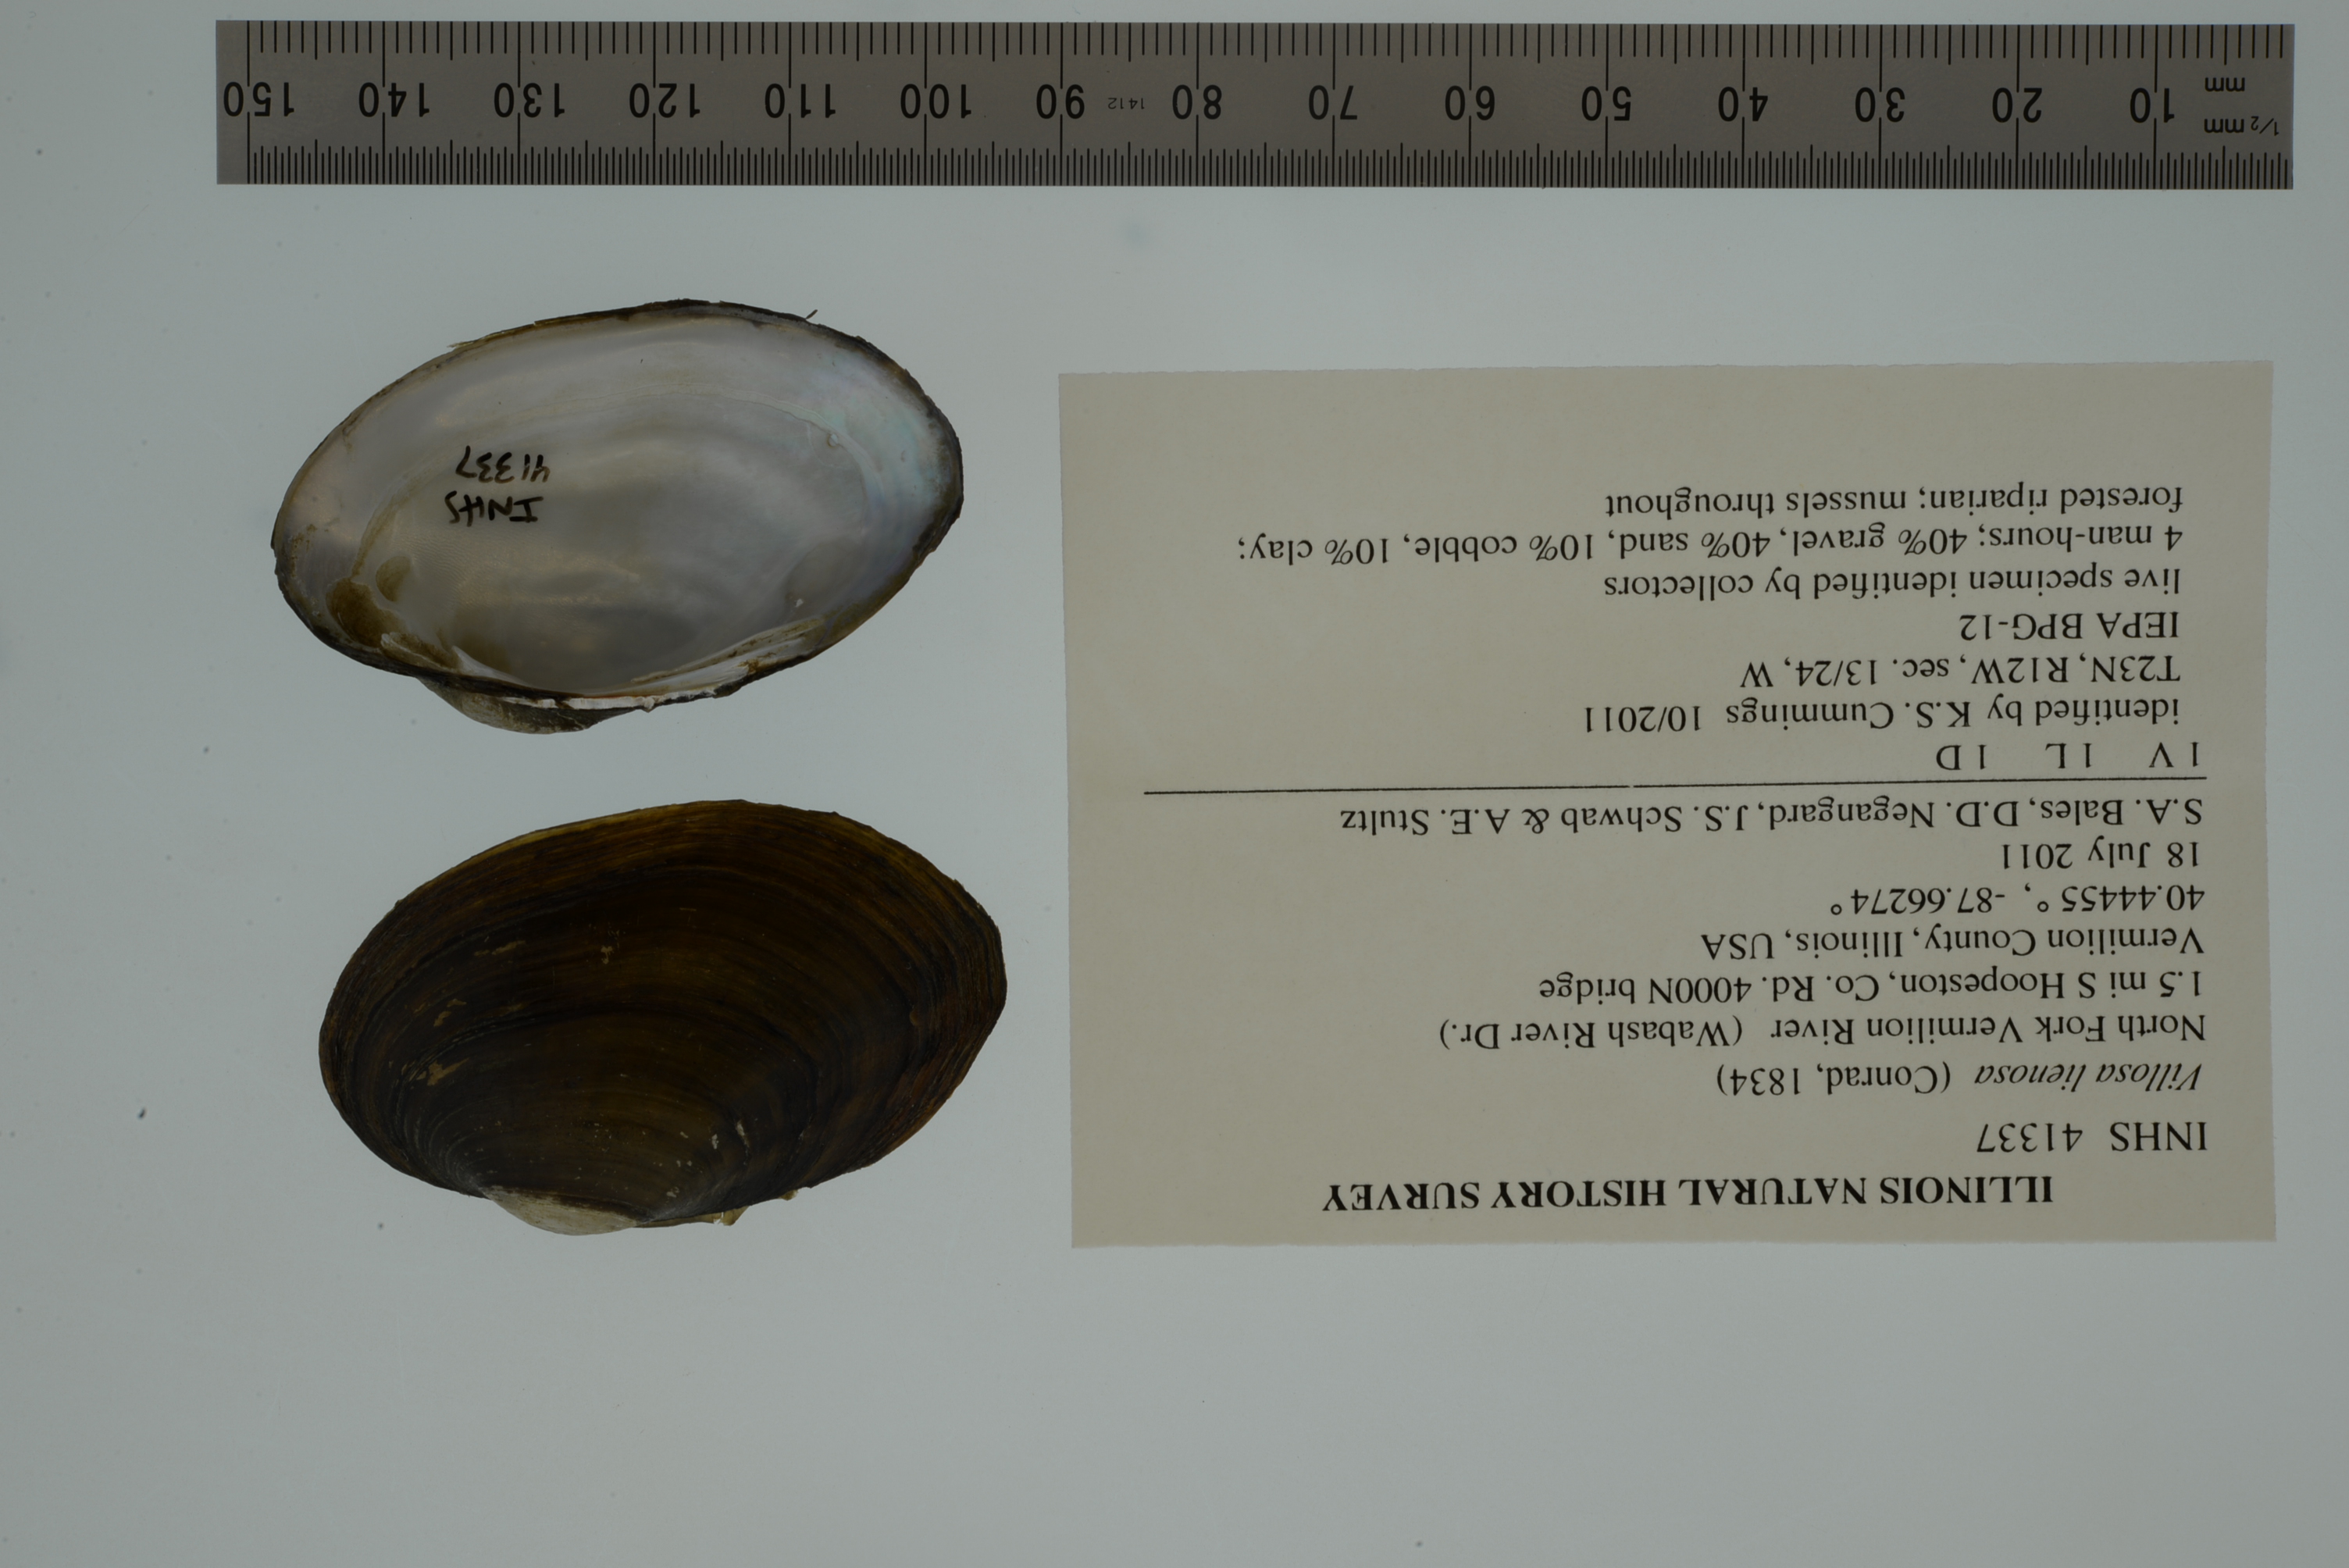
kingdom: Animalia
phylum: Mollusca
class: Bivalvia
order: Unionida
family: Unionidae
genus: Leaunio
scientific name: Leaunio lienosus
